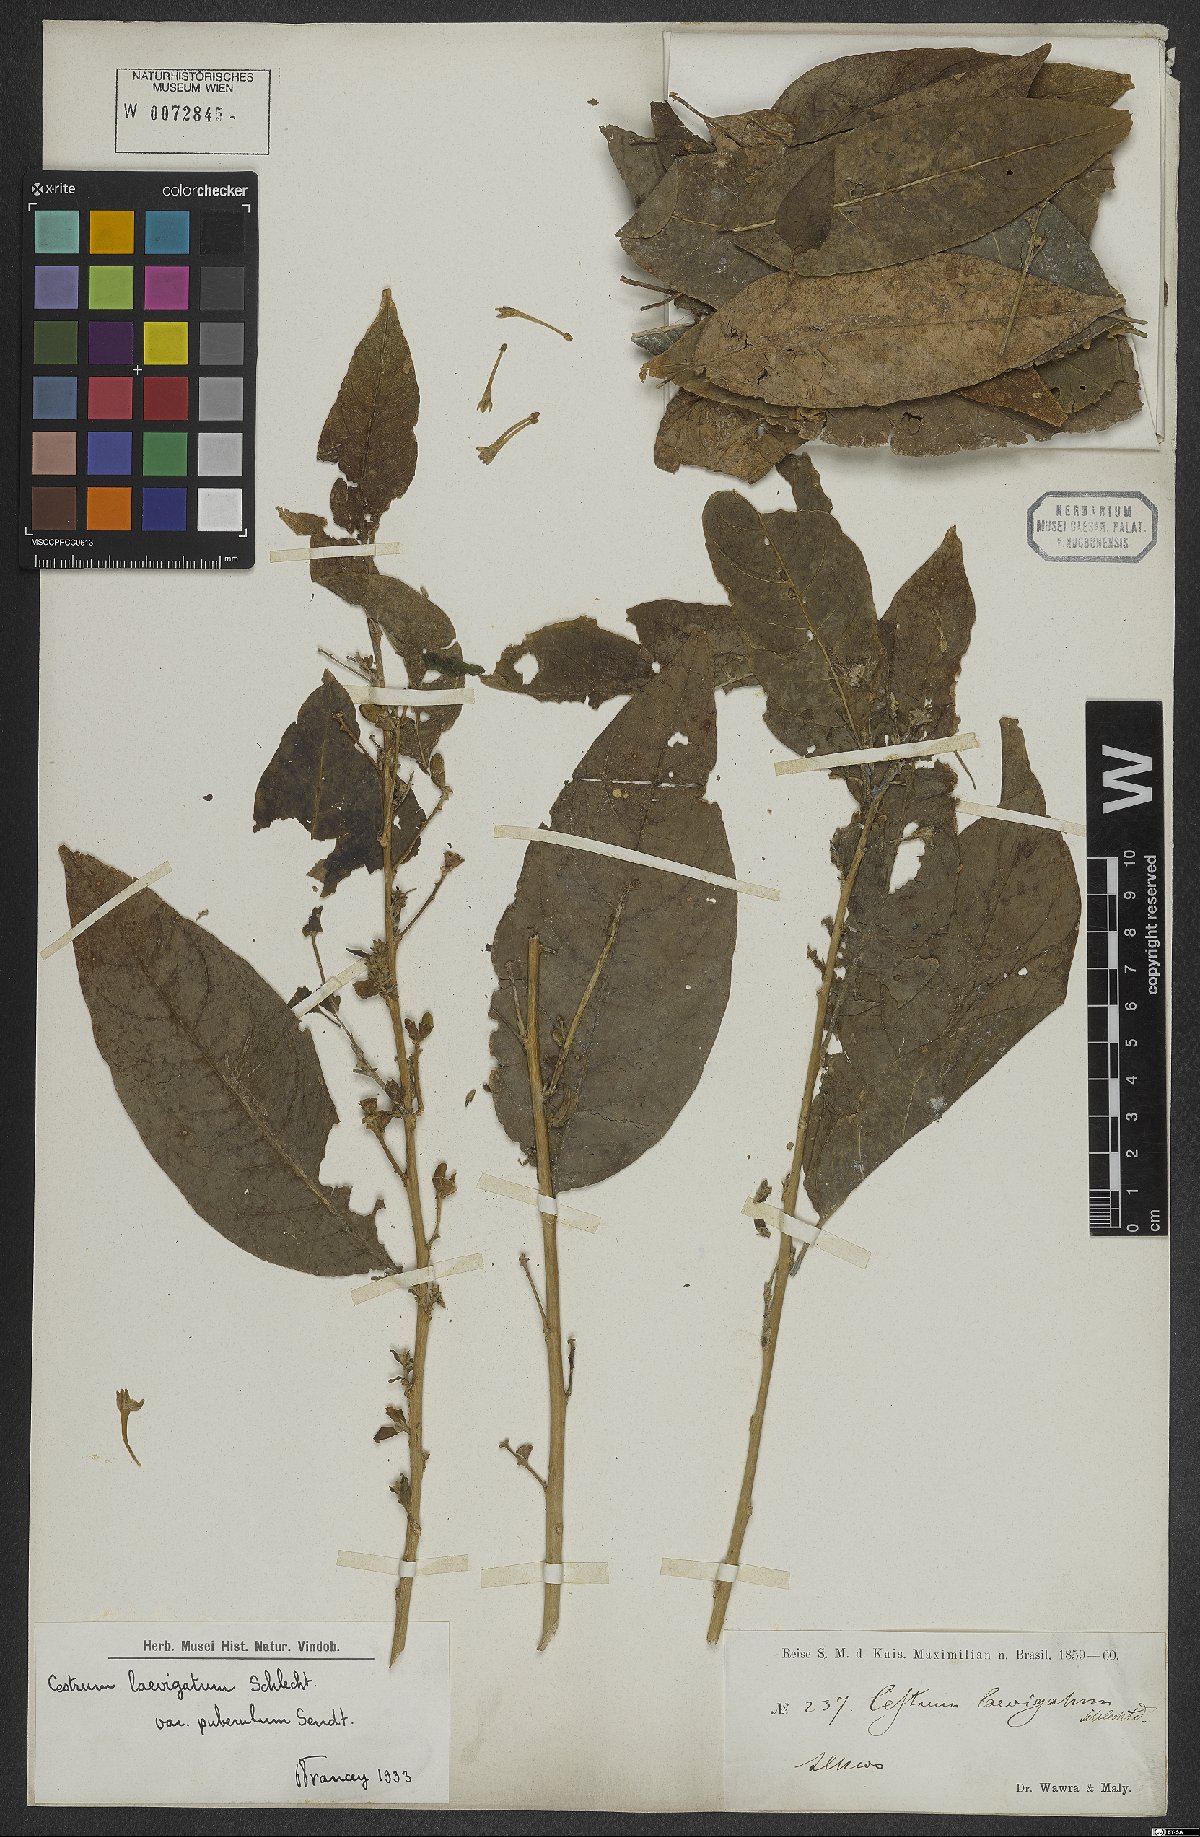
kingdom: Plantae
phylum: Tracheophyta
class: Magnoliopsida
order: Solanales
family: Solanaceae
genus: Cestrum
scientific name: Cestrum laevigatum
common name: Inkberry
